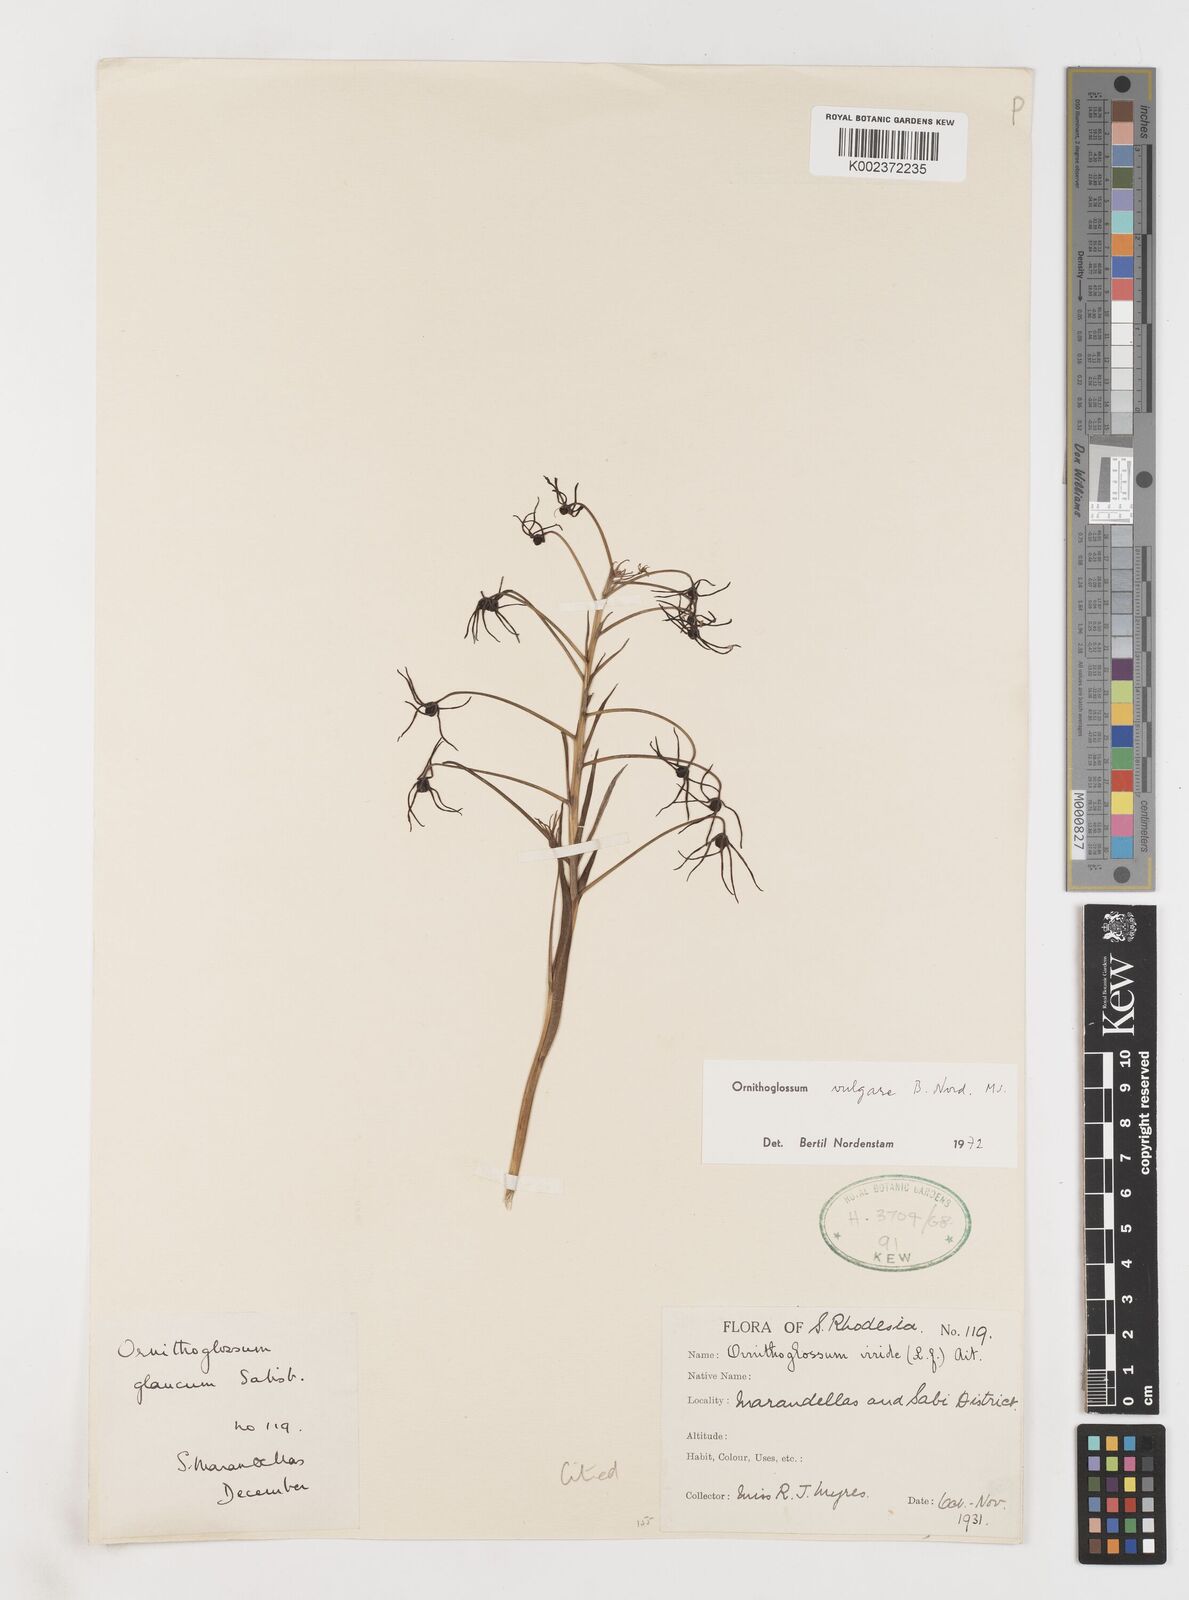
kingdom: Plantae
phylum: Tracheophyta
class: Liliopsida
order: Liliales
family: Colchicaceae
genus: Ornithoglossum
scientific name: Ornithoglossum vulgare
